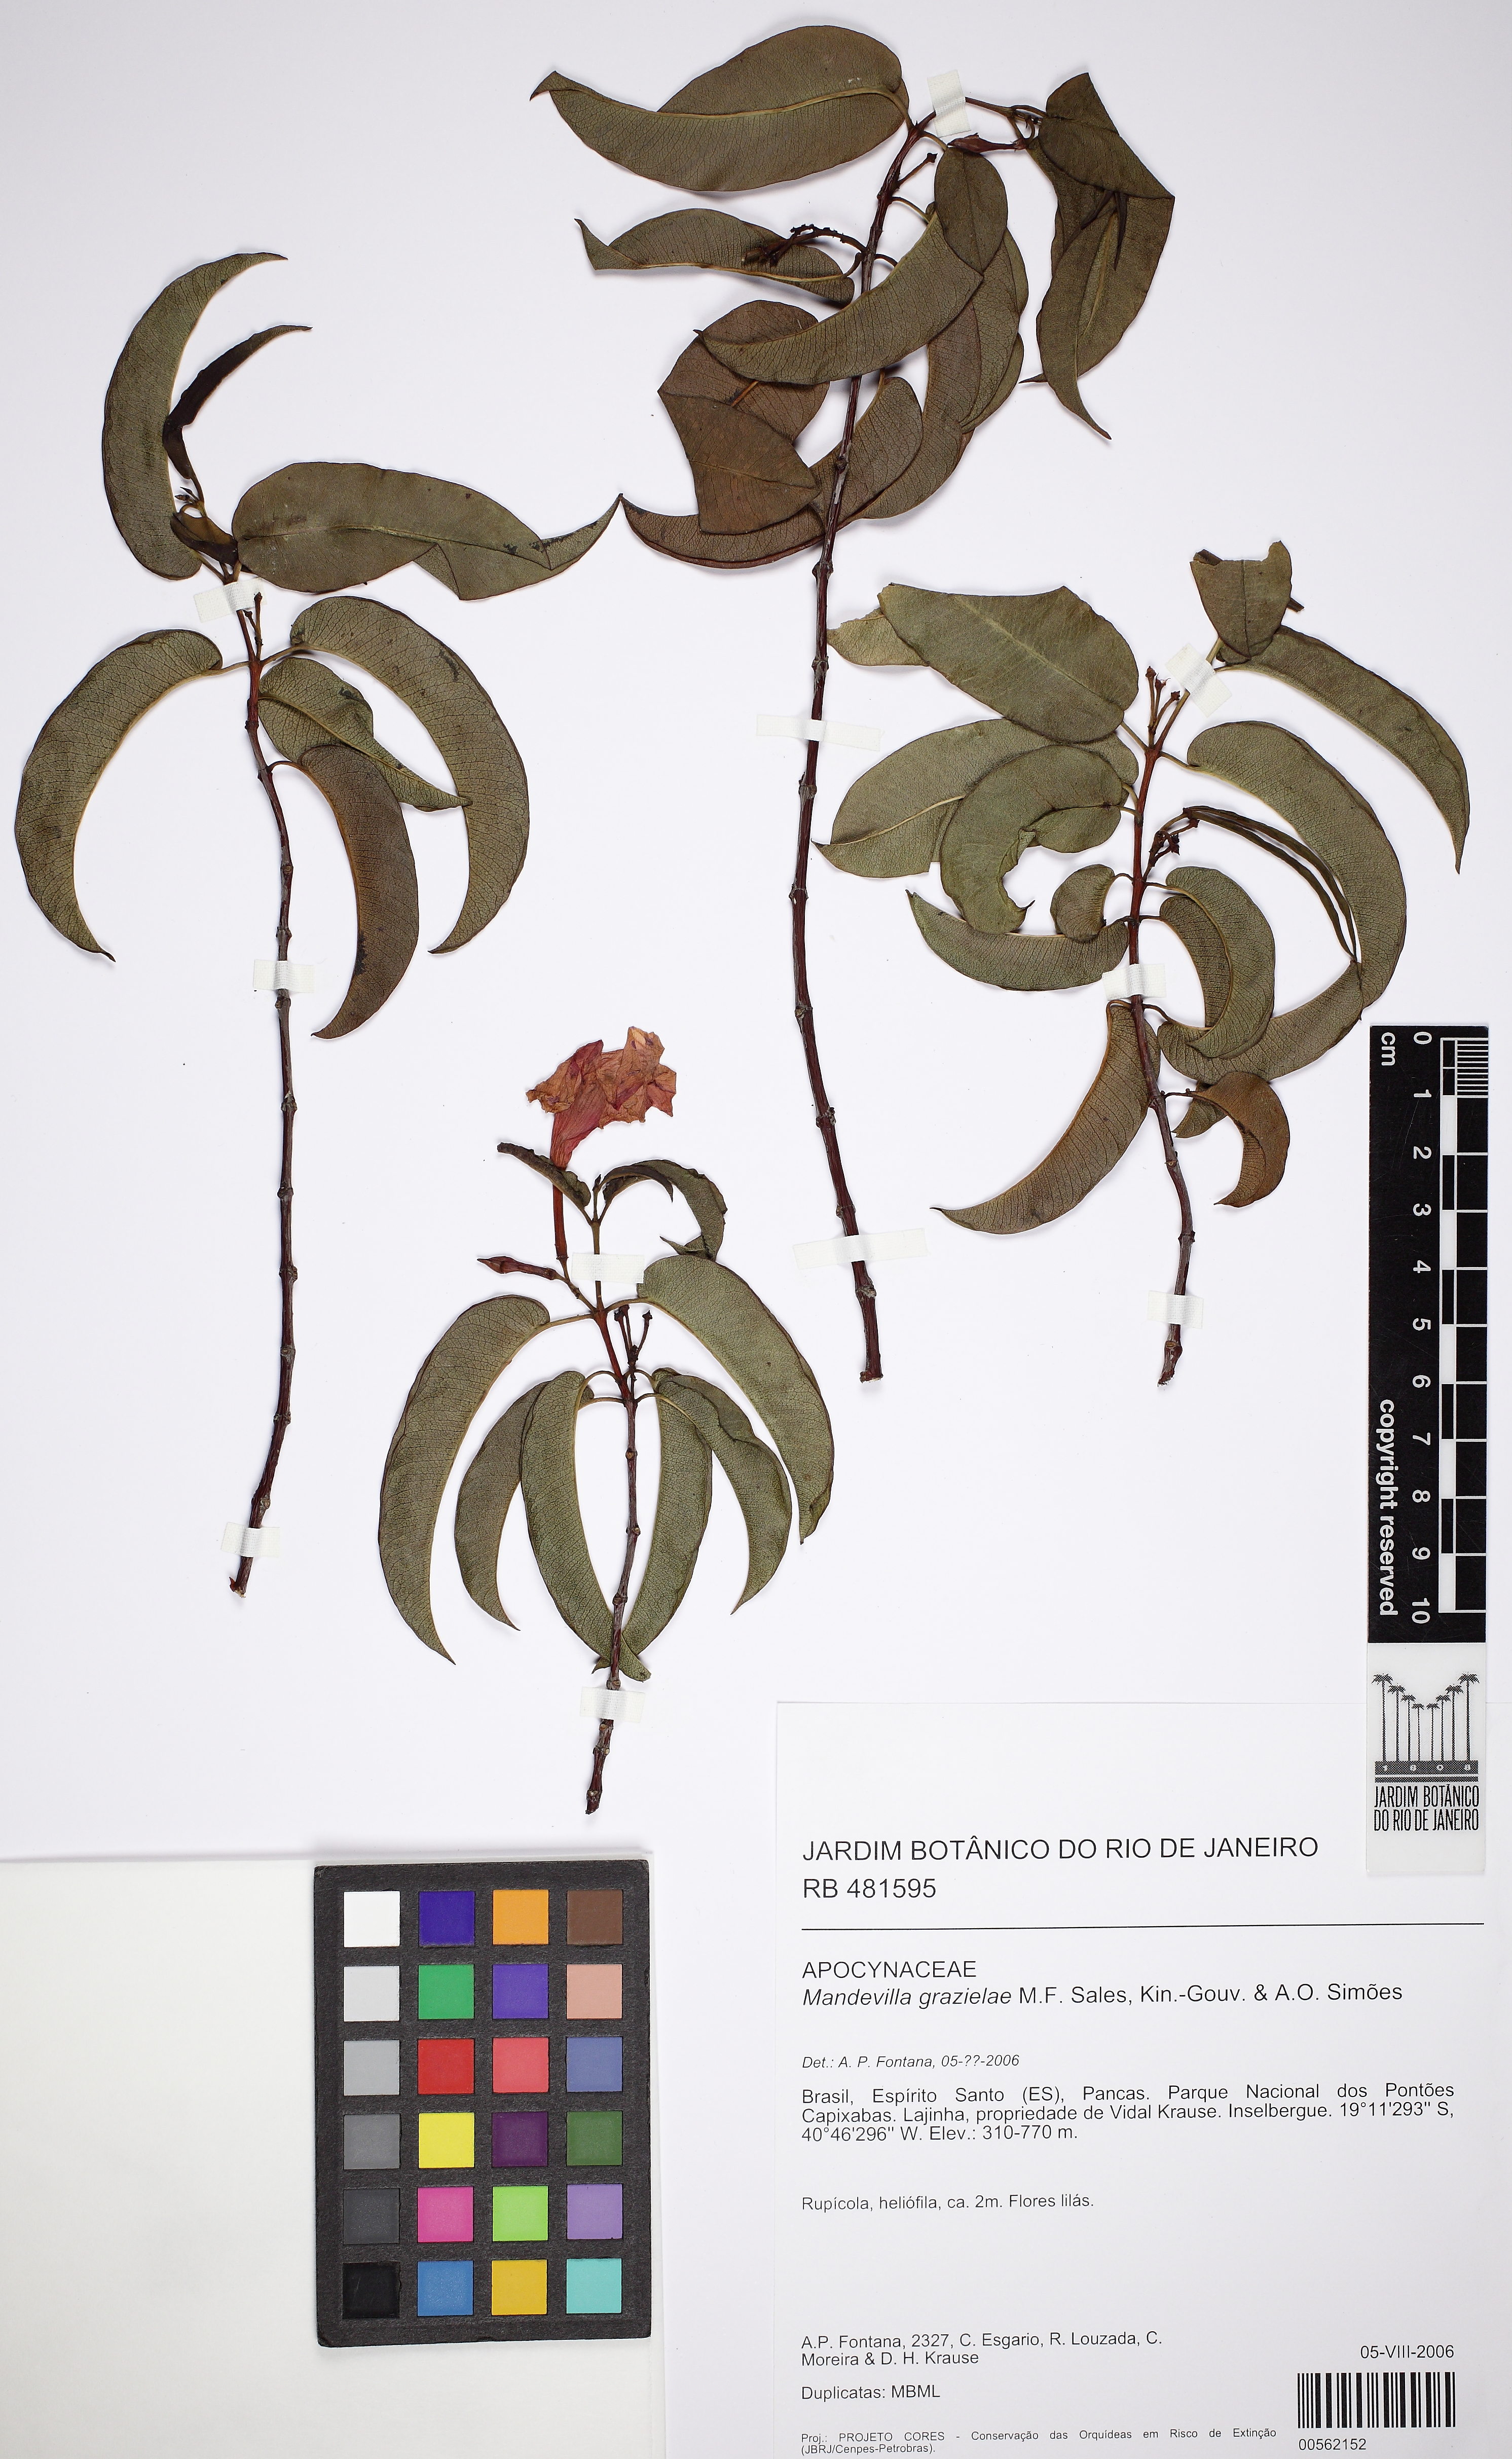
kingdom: Plantae
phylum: Tracheophyta
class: Magnoliopsida
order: Gentianales
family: Apocynaceae
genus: Mandevilla
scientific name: Mandevilla grazielae
